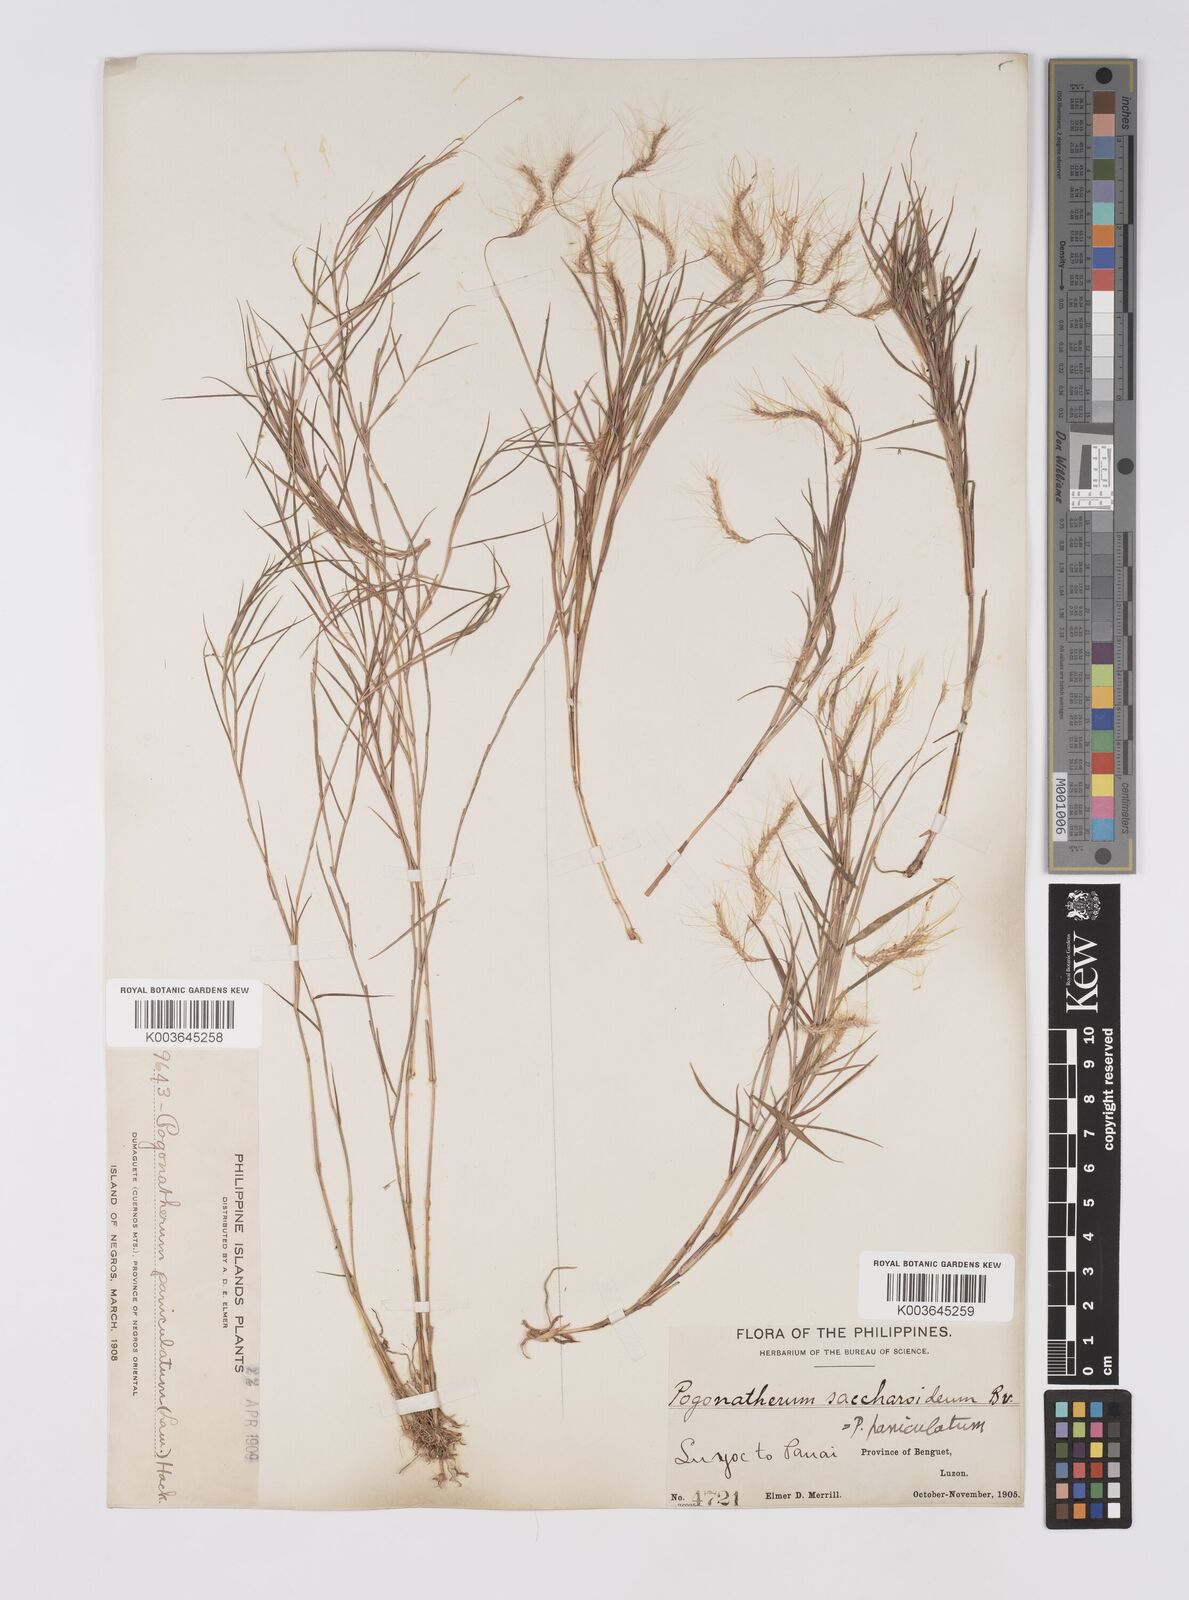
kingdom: Plantae
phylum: Tracheophyta
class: Liliopsida
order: Poales
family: Poaceae
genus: Pogonatherum
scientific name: Pogonatherum paniceum
